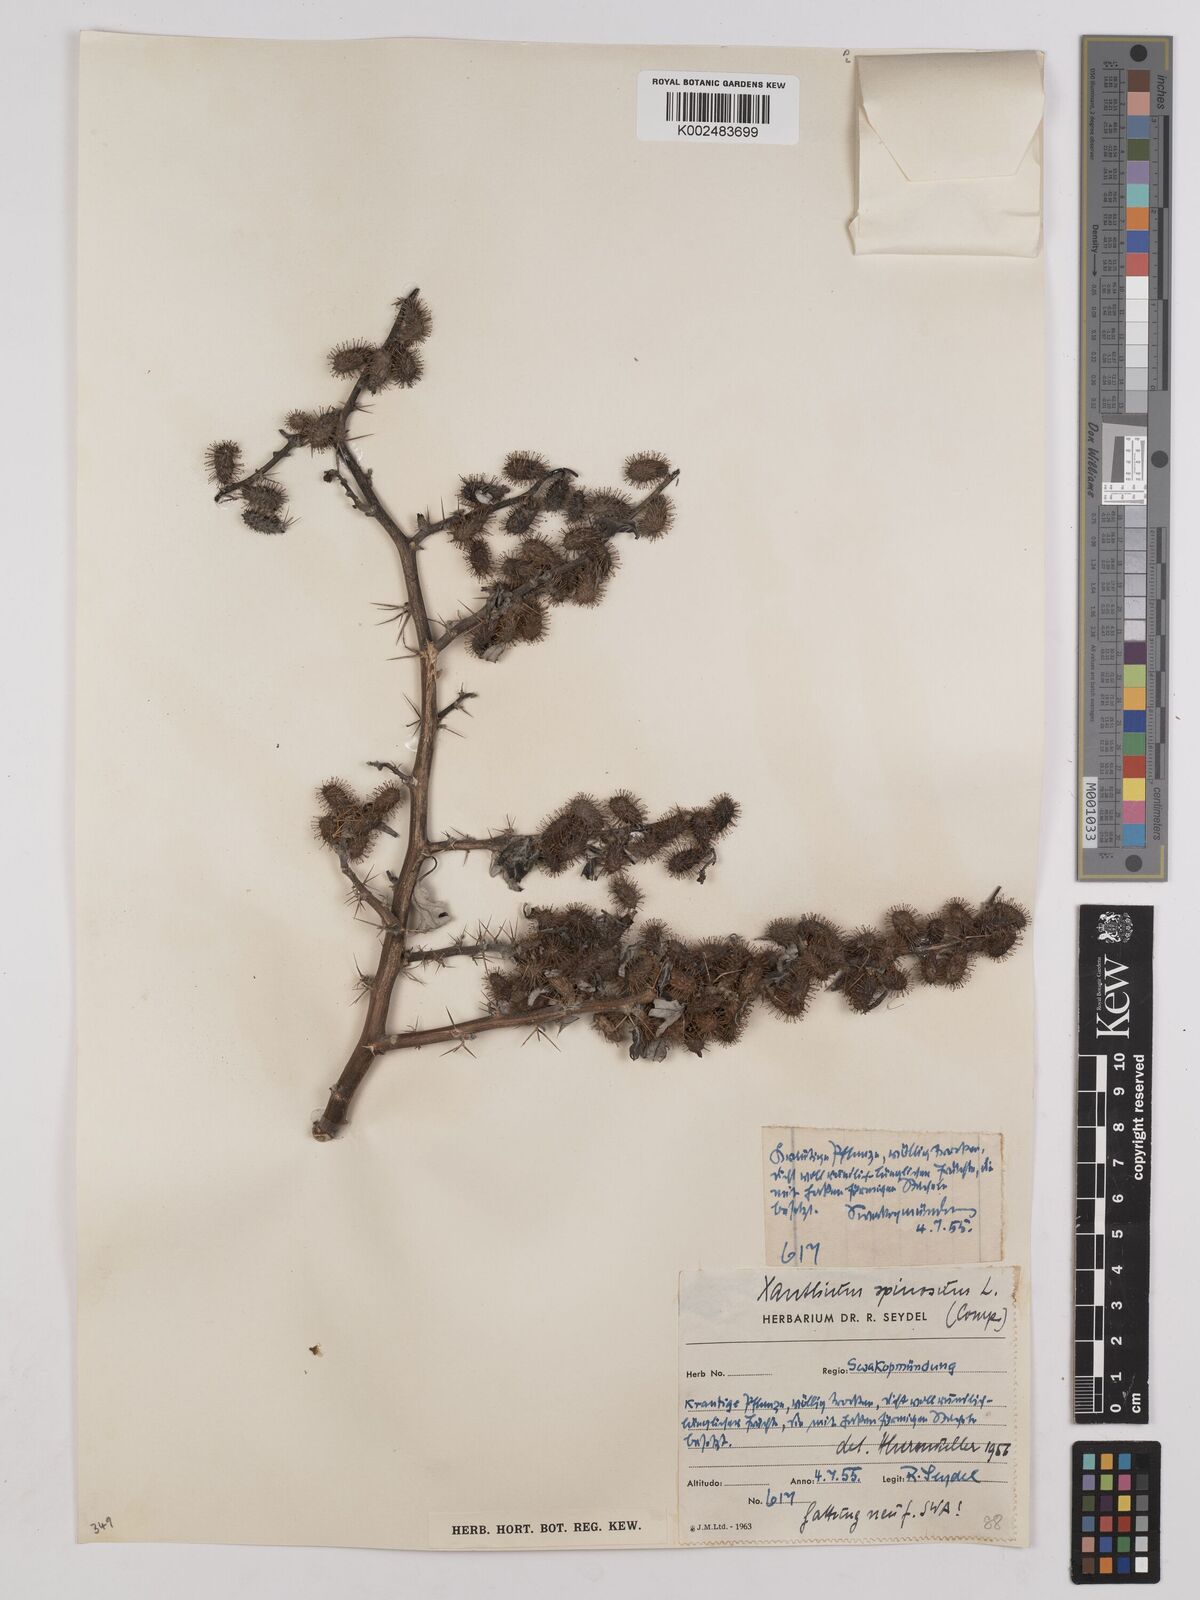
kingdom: Plantae
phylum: Tracheophyta
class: Magnoliopsida
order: Asterales
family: Asteraceae
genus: Xanthium
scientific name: Xanthium spinosum
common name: Spiny cocklebur
